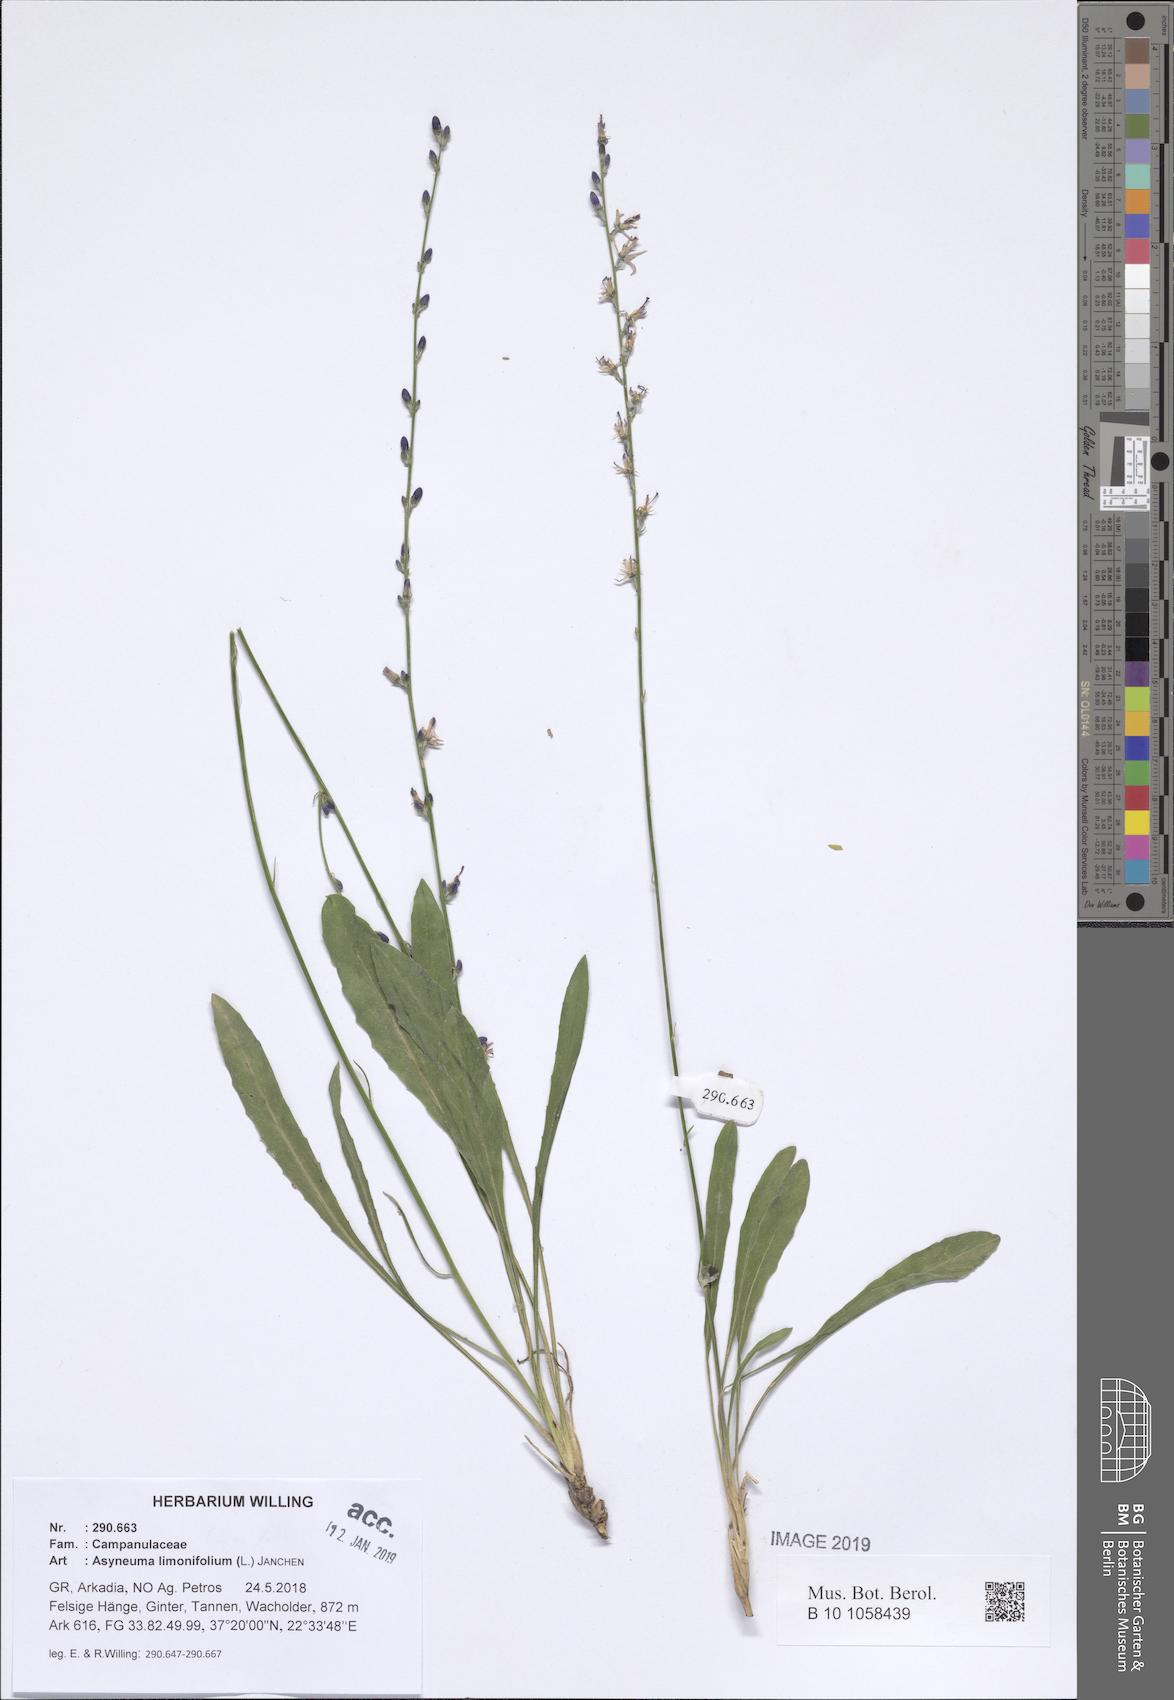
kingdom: Plantae
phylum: Tracheophyta
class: Magnoliopsida
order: Asterales
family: Campanulaceae
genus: Asyneuma
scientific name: Asyneuma limonifolium
